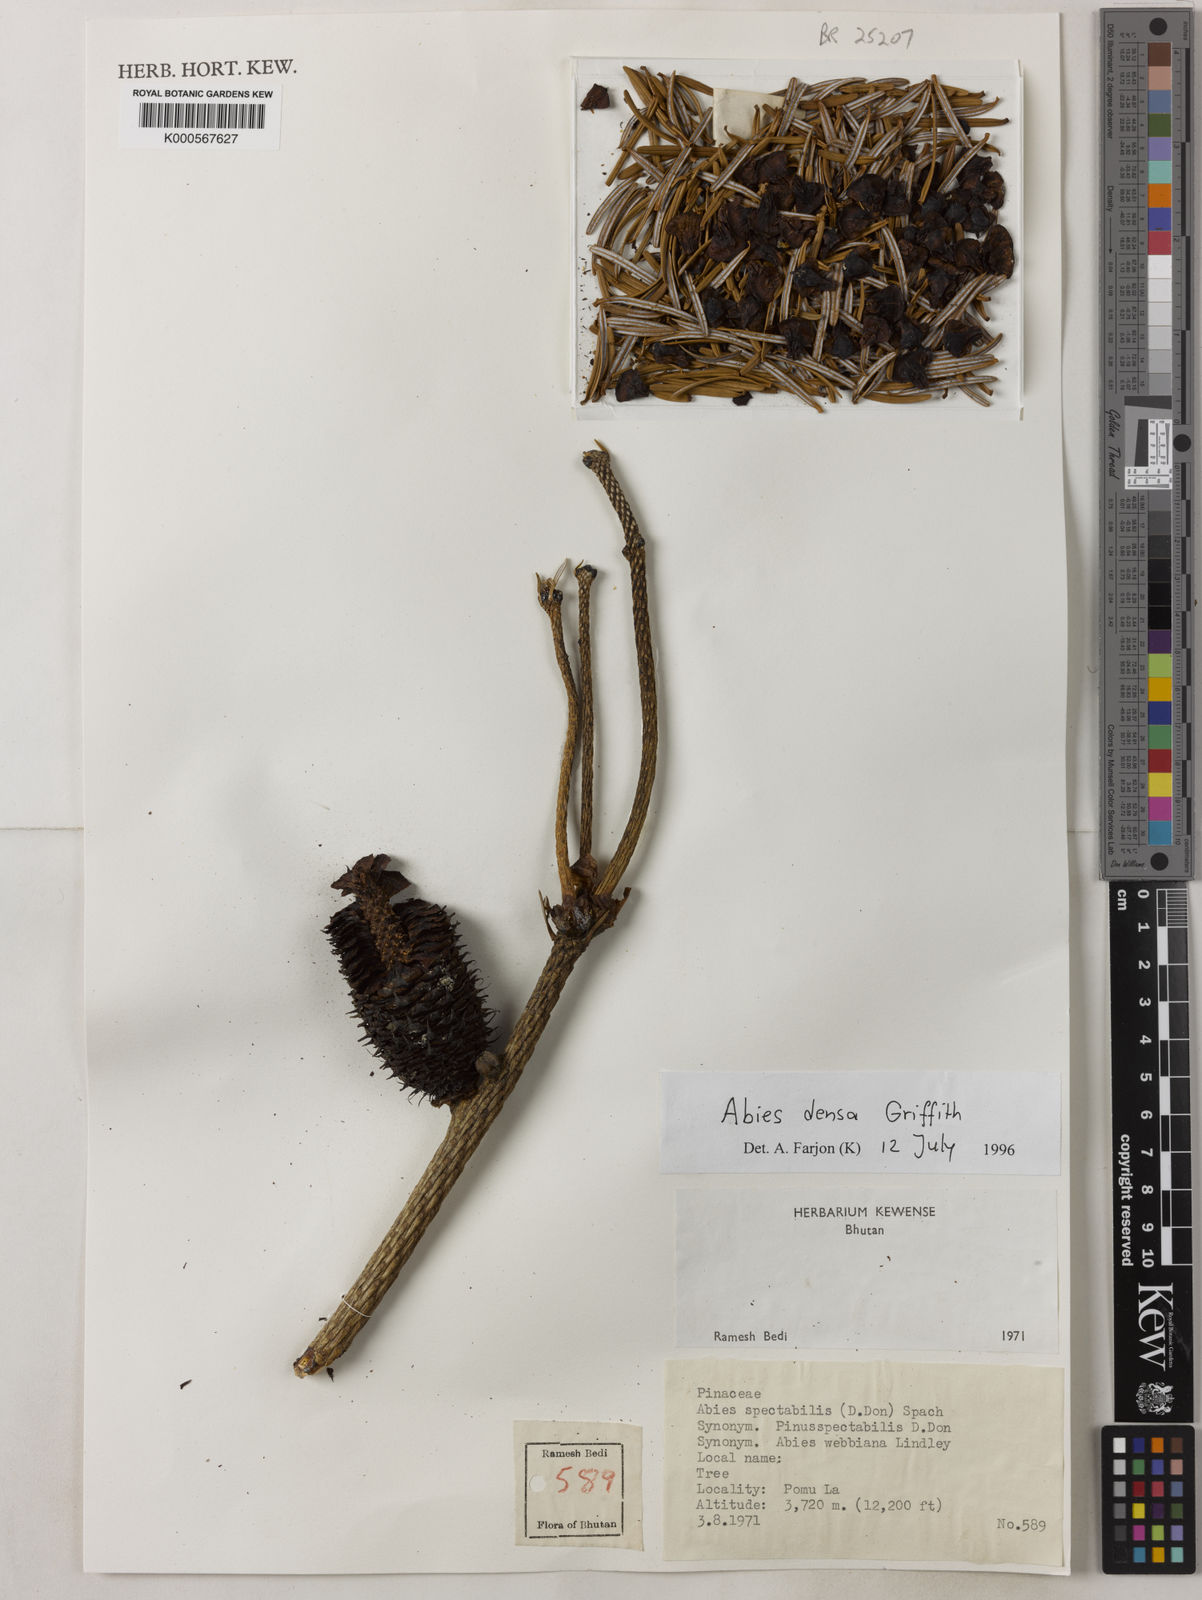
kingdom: Plantae
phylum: Tracheophyta
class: Pinopsida
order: Pinales
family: Pinaceae
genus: Abies
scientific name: Abies densa
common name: Sikkim fir
